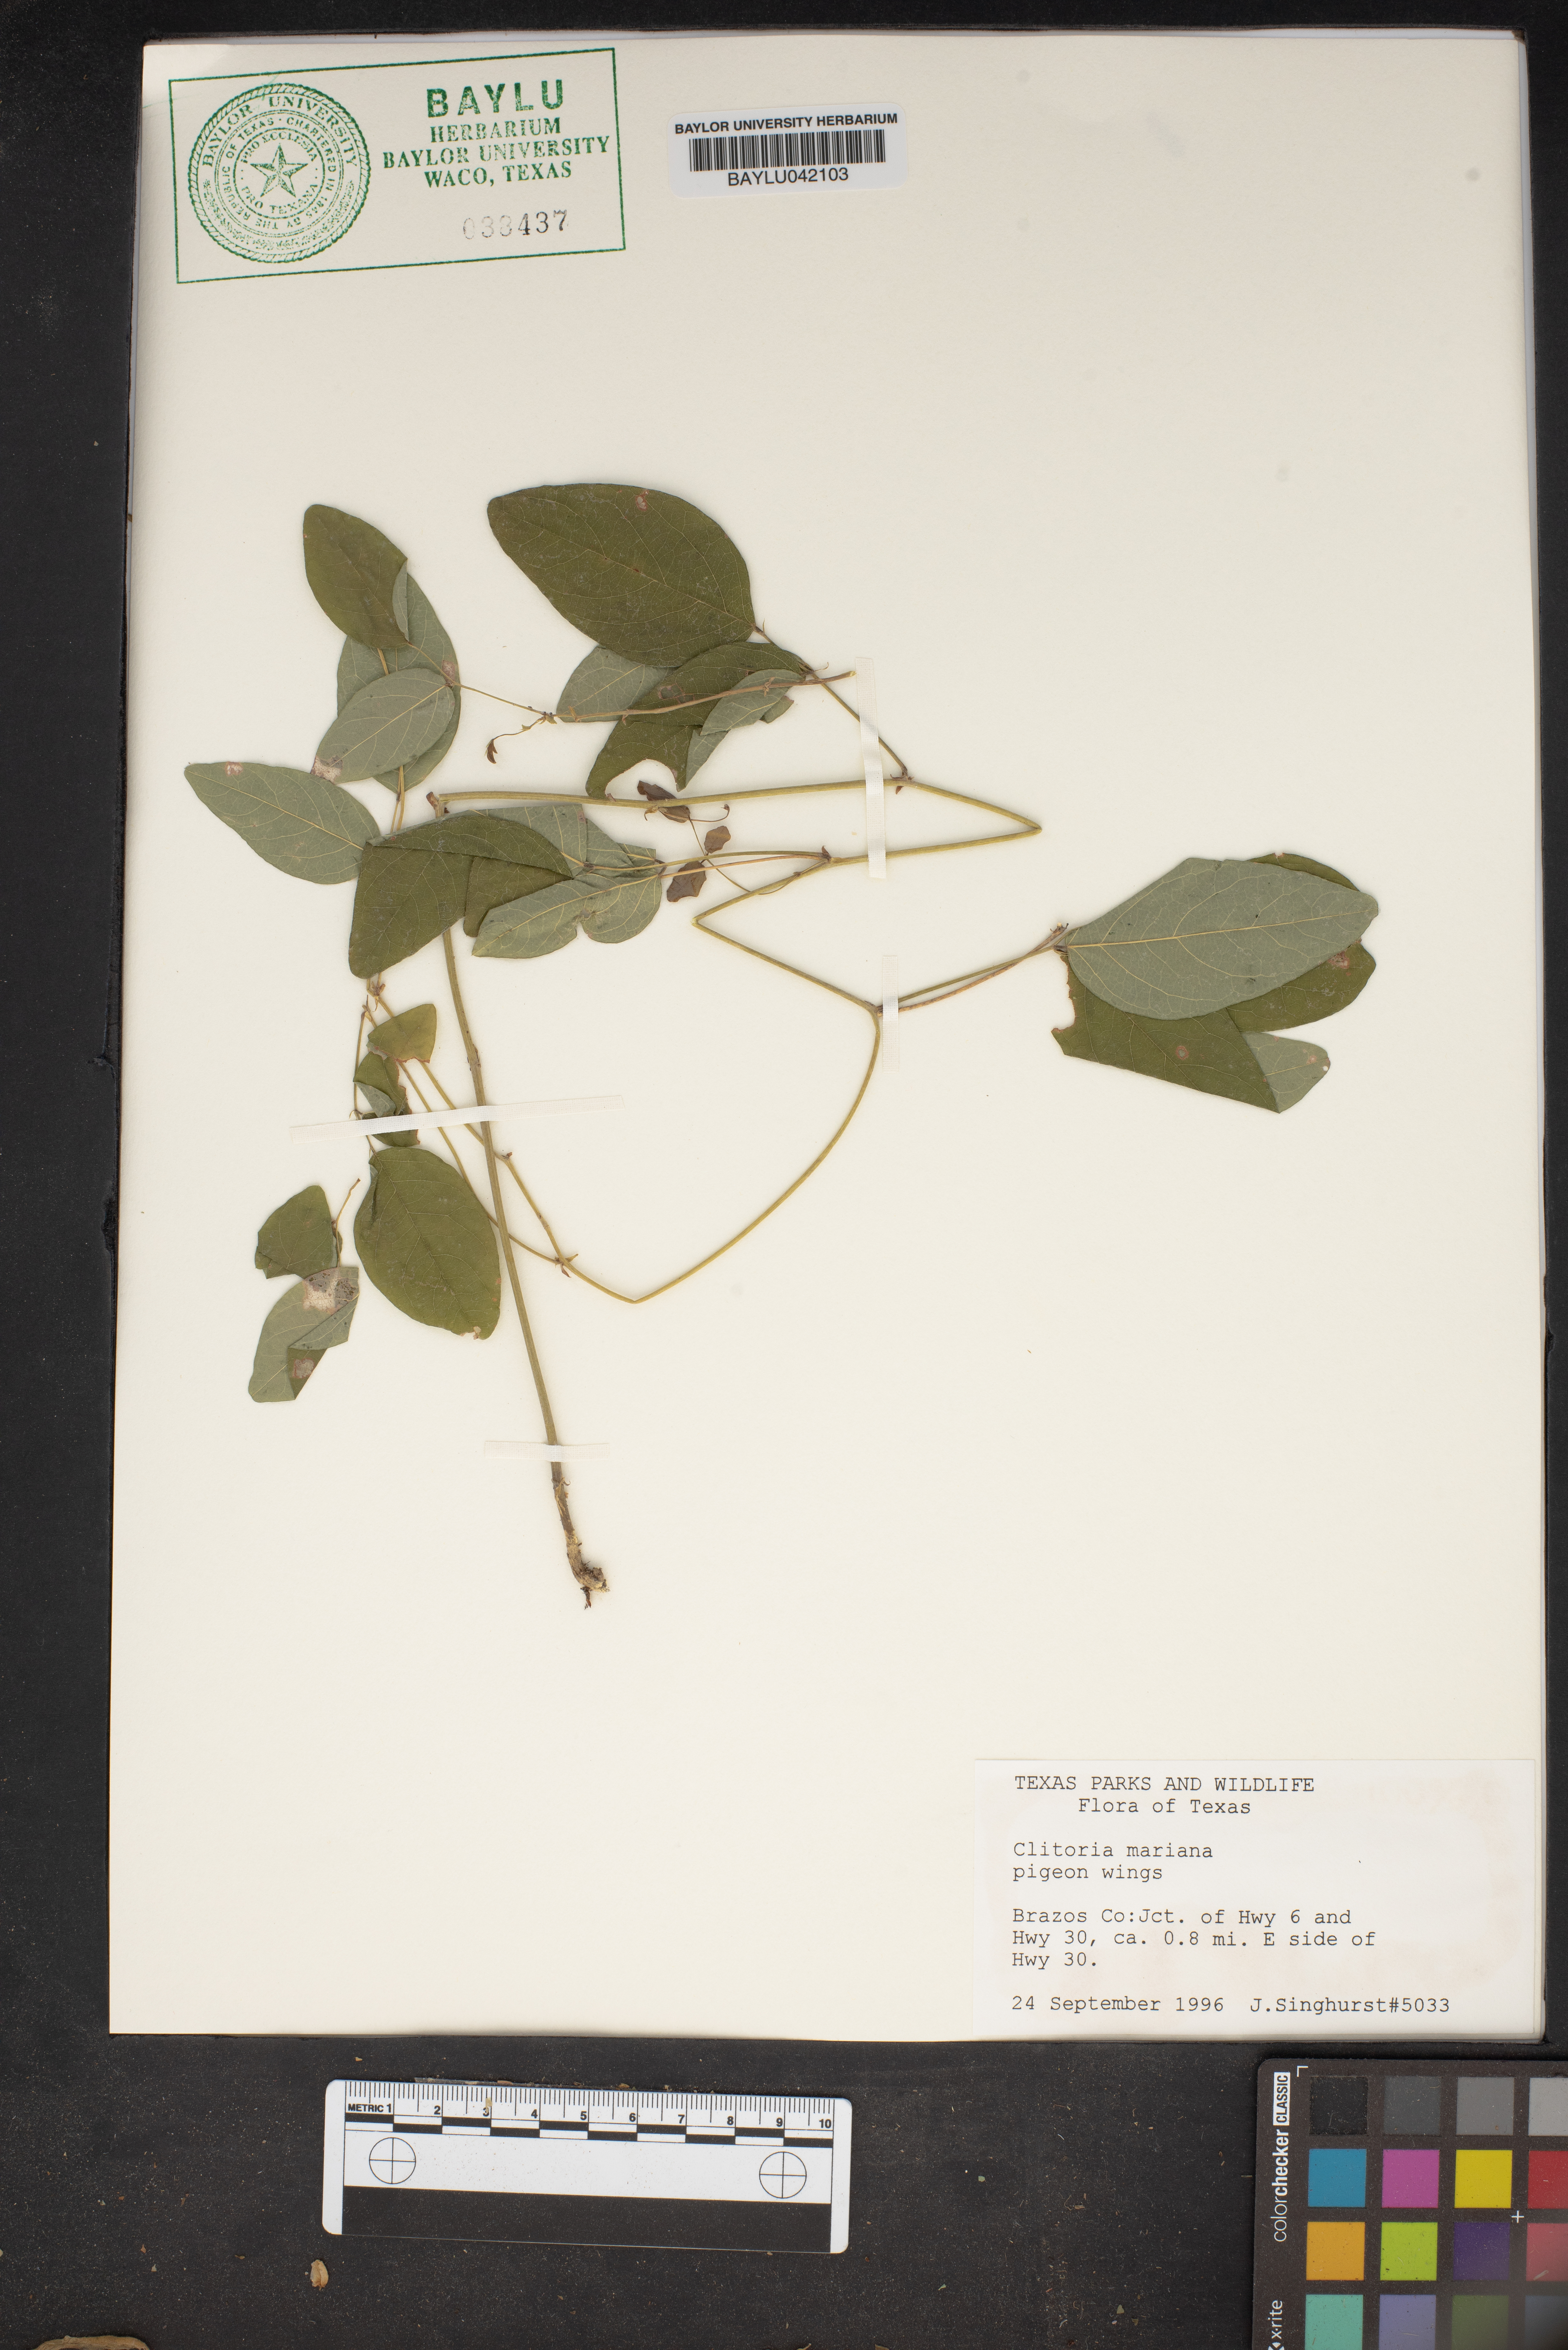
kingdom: Plantae
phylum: Tracheophyta
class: Magnoliopsida
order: Fabales
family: Fabaceae
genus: Clitoria
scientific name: Clitoria mariana
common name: Butterfly-pea
